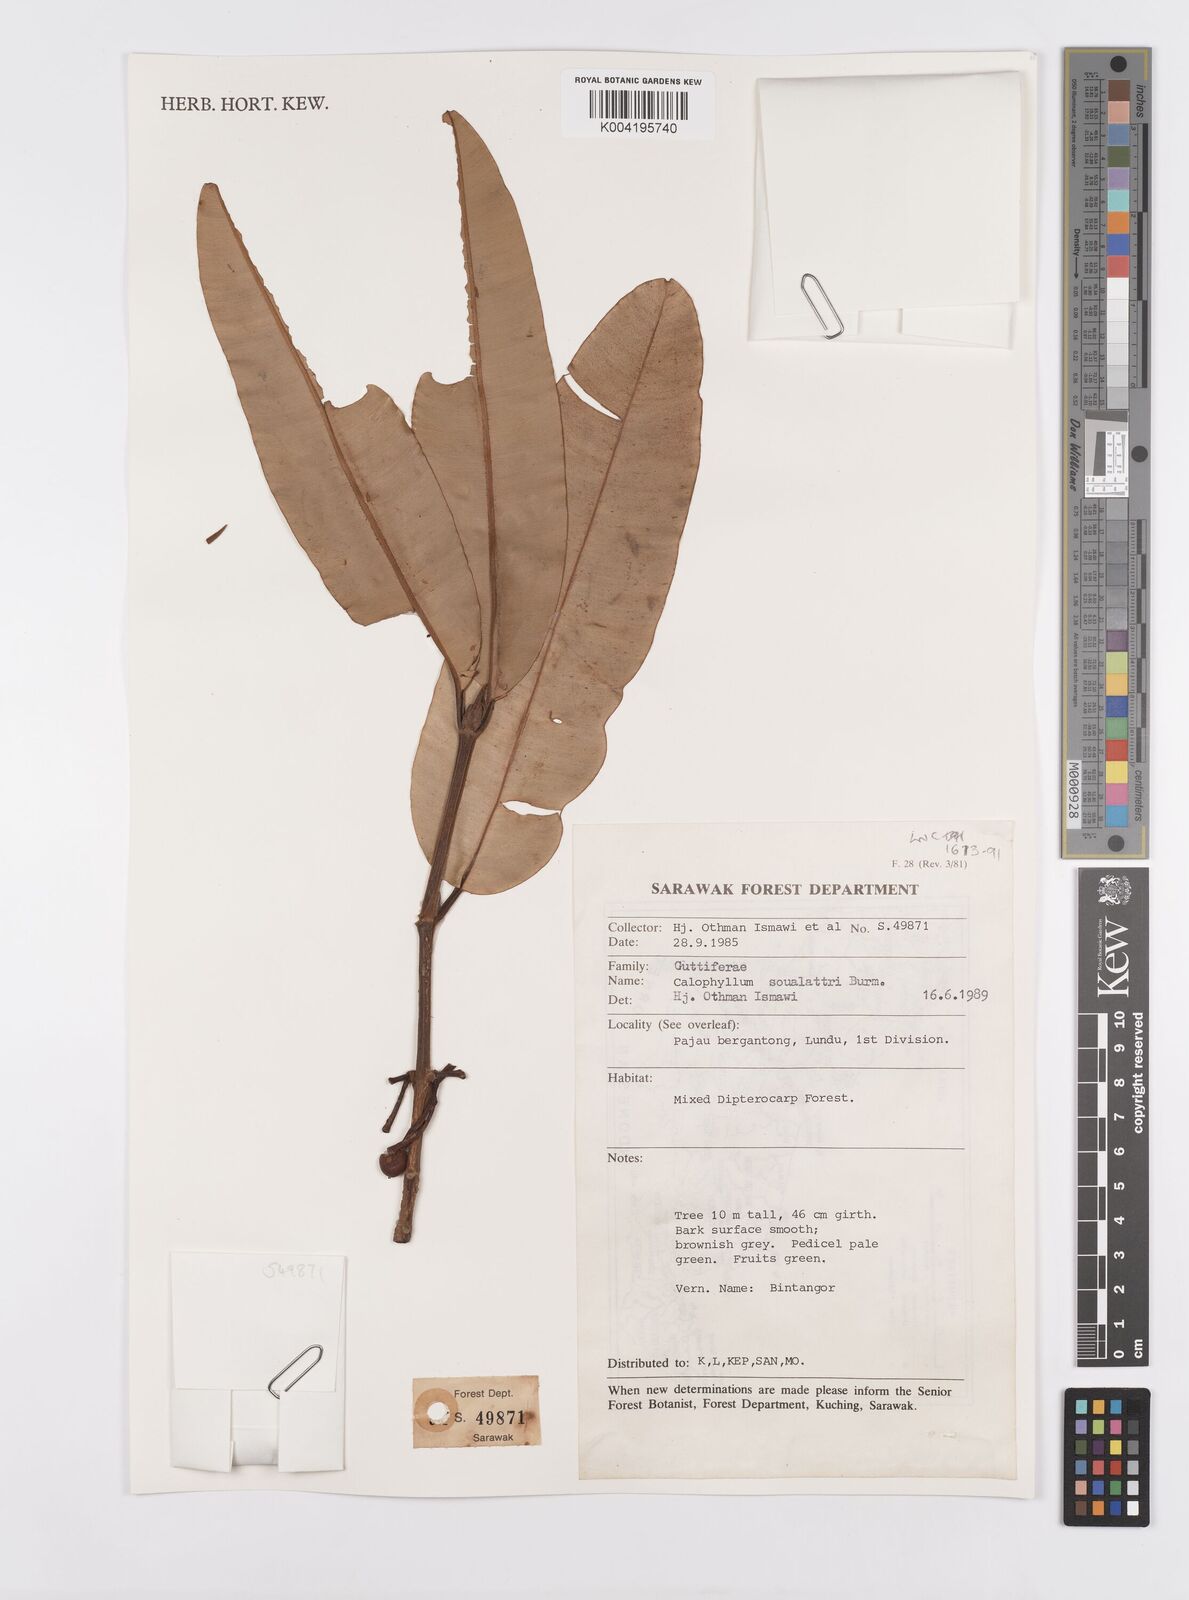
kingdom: Plantae
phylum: Tracheophyta
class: Magnoliopsida
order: Malpighiales
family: Calophyllaceae
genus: Calophyllum
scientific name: Calophyllum soulattri
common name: Bitangoor boonot
